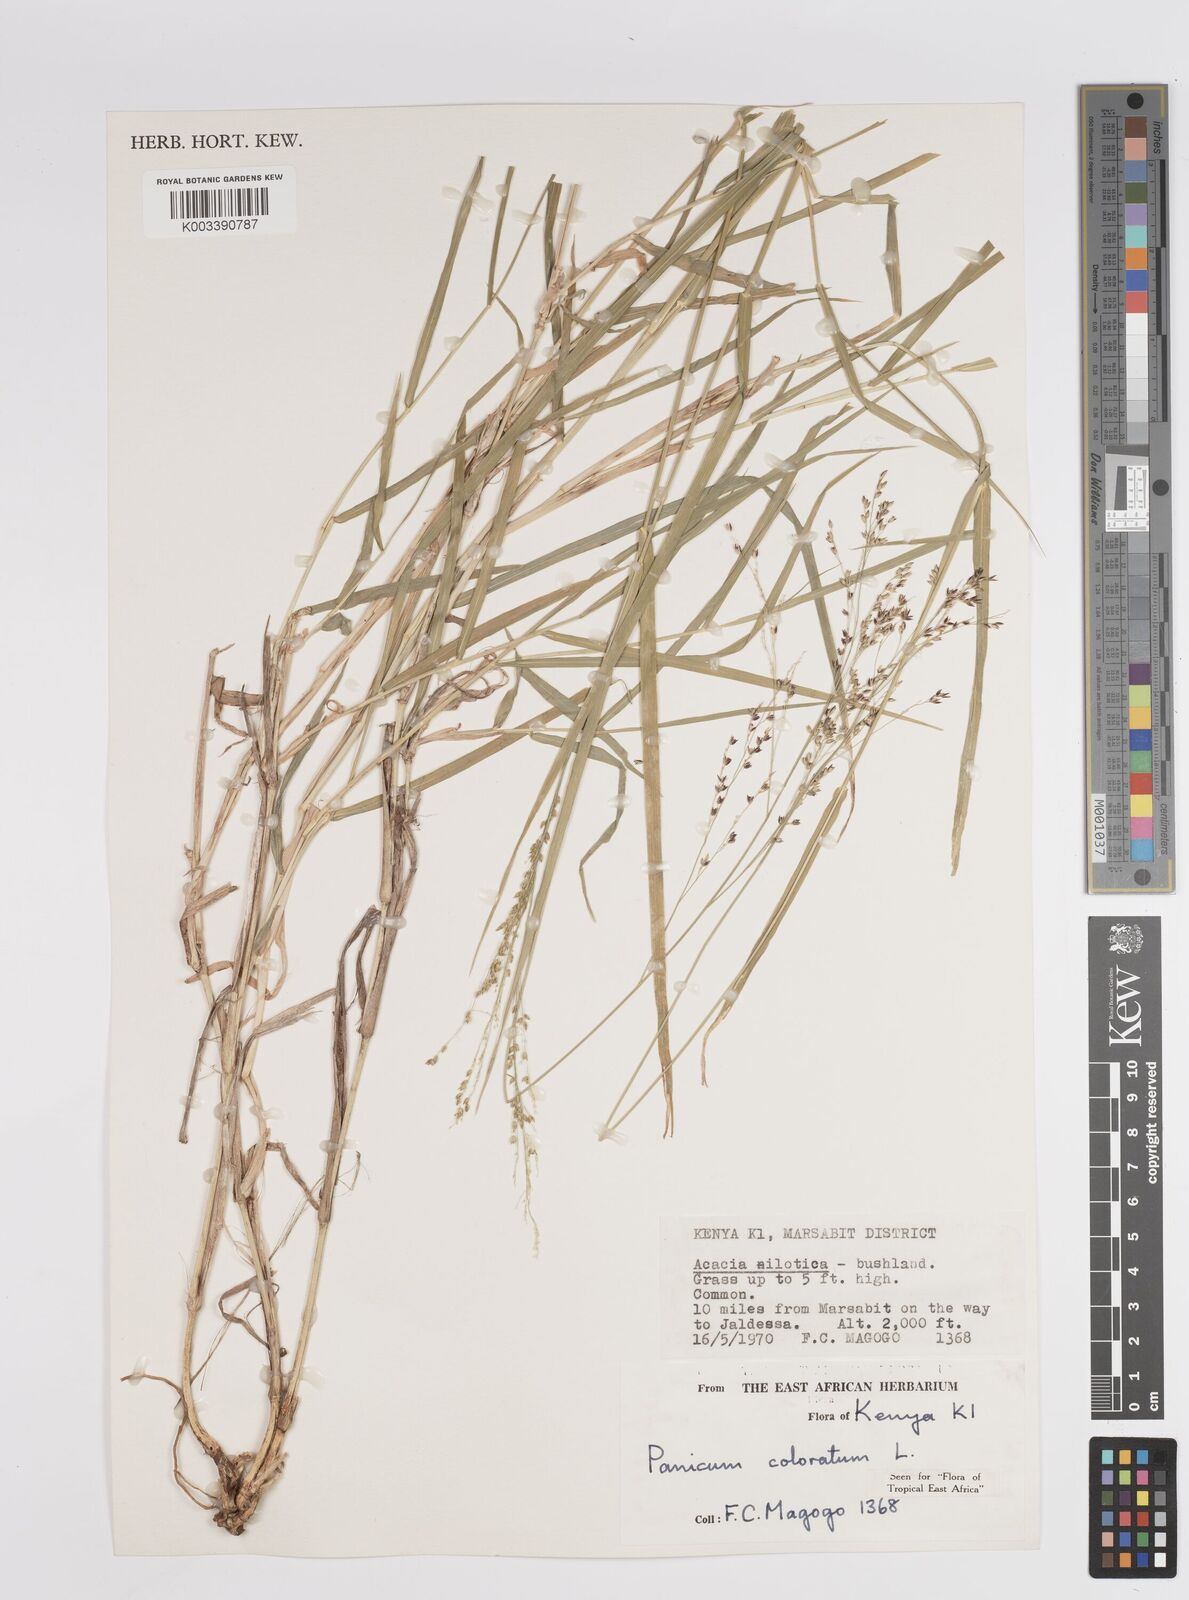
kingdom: Plantae
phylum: Tracheophyta
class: Liliopsida
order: Poales
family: Poaceae
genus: Panicum
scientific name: Panicum coloratum
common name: Kleingrass
